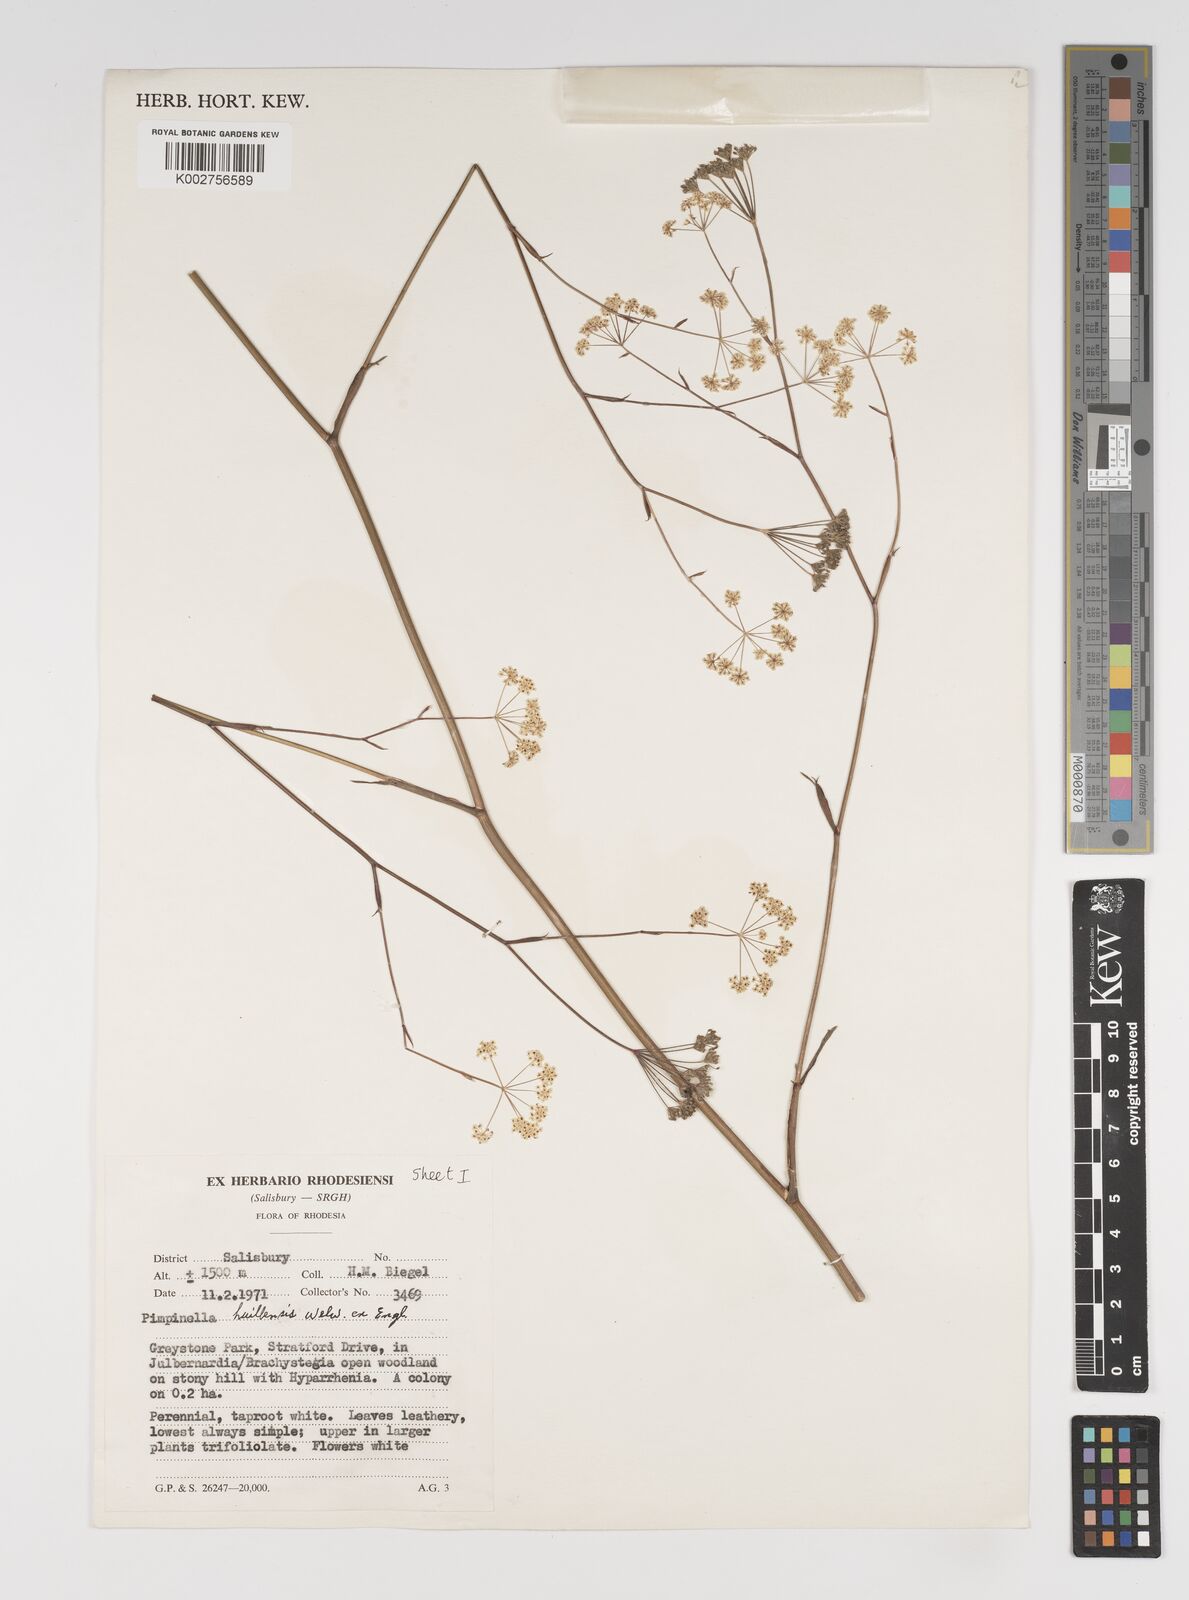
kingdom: Plantae
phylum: Tracheophyta
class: Magnoliopsida
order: Apiales
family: Apiaceae
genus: Pimpinella
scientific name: Pimpinella huillensis
